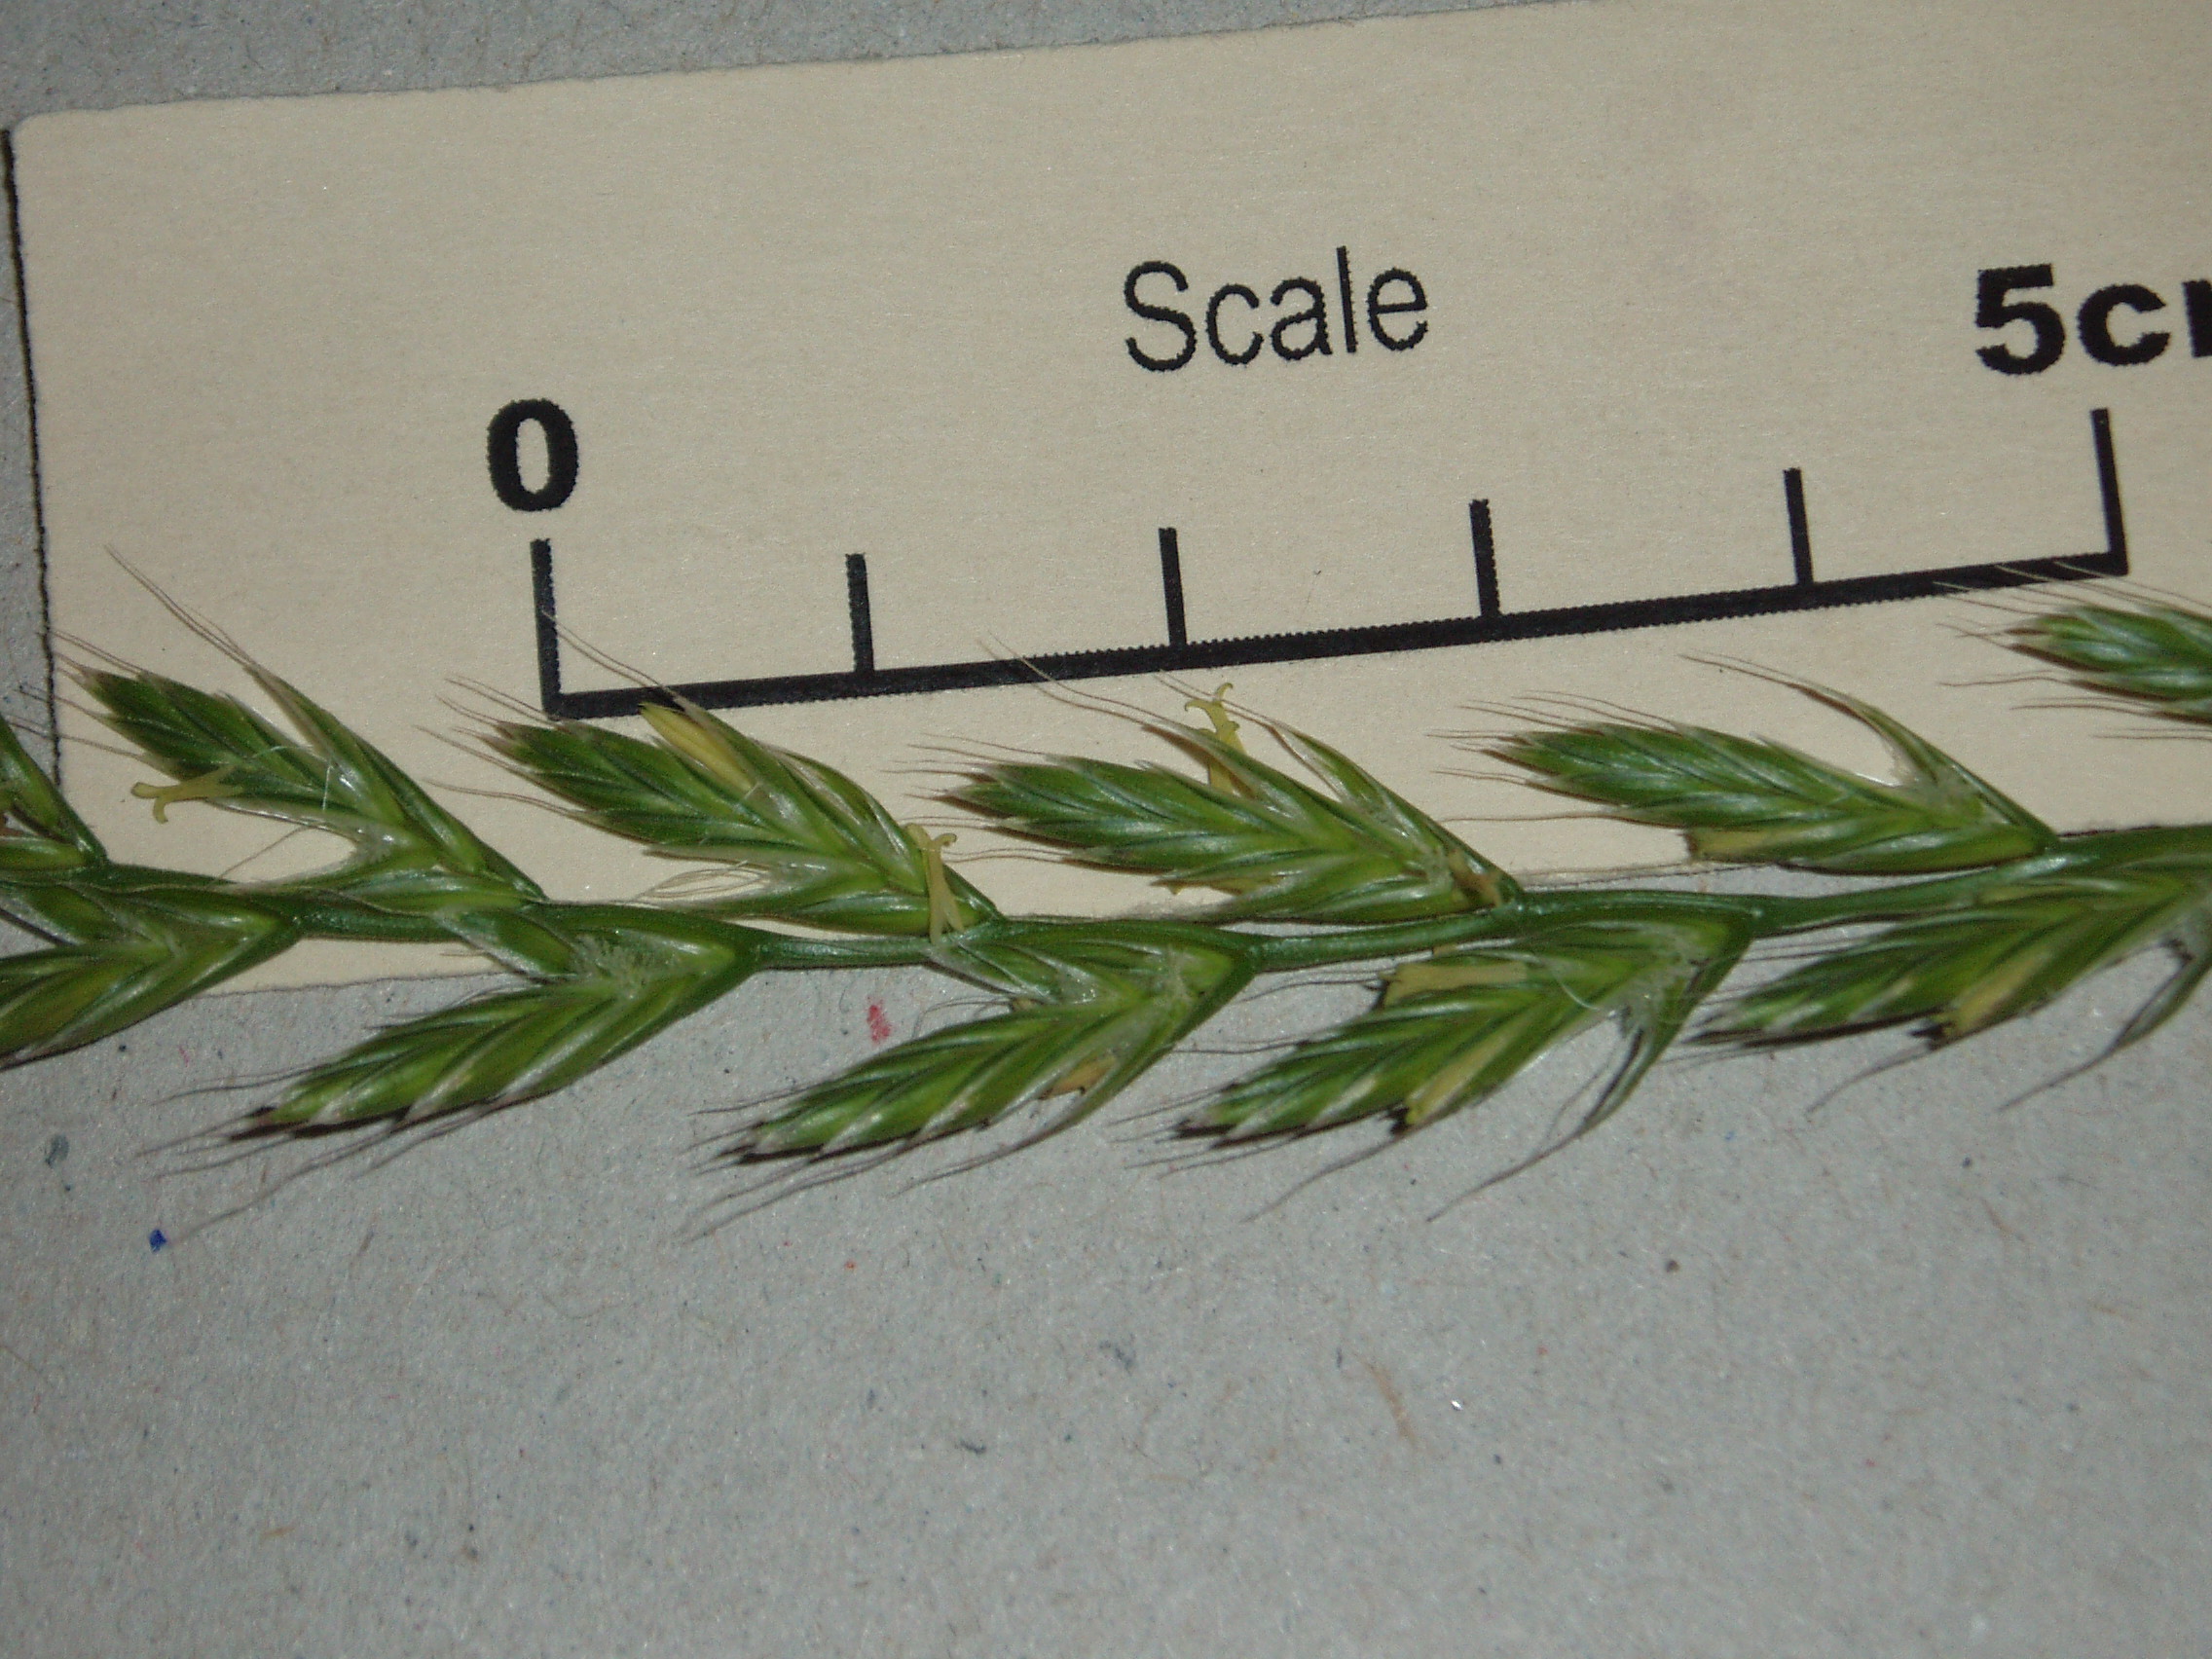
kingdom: Plantae
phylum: Tracheophyta
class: Liliopsida
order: Poales
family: Poaceae
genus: Lolium
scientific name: Lolium multiflorum
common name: Annual ryegrass
